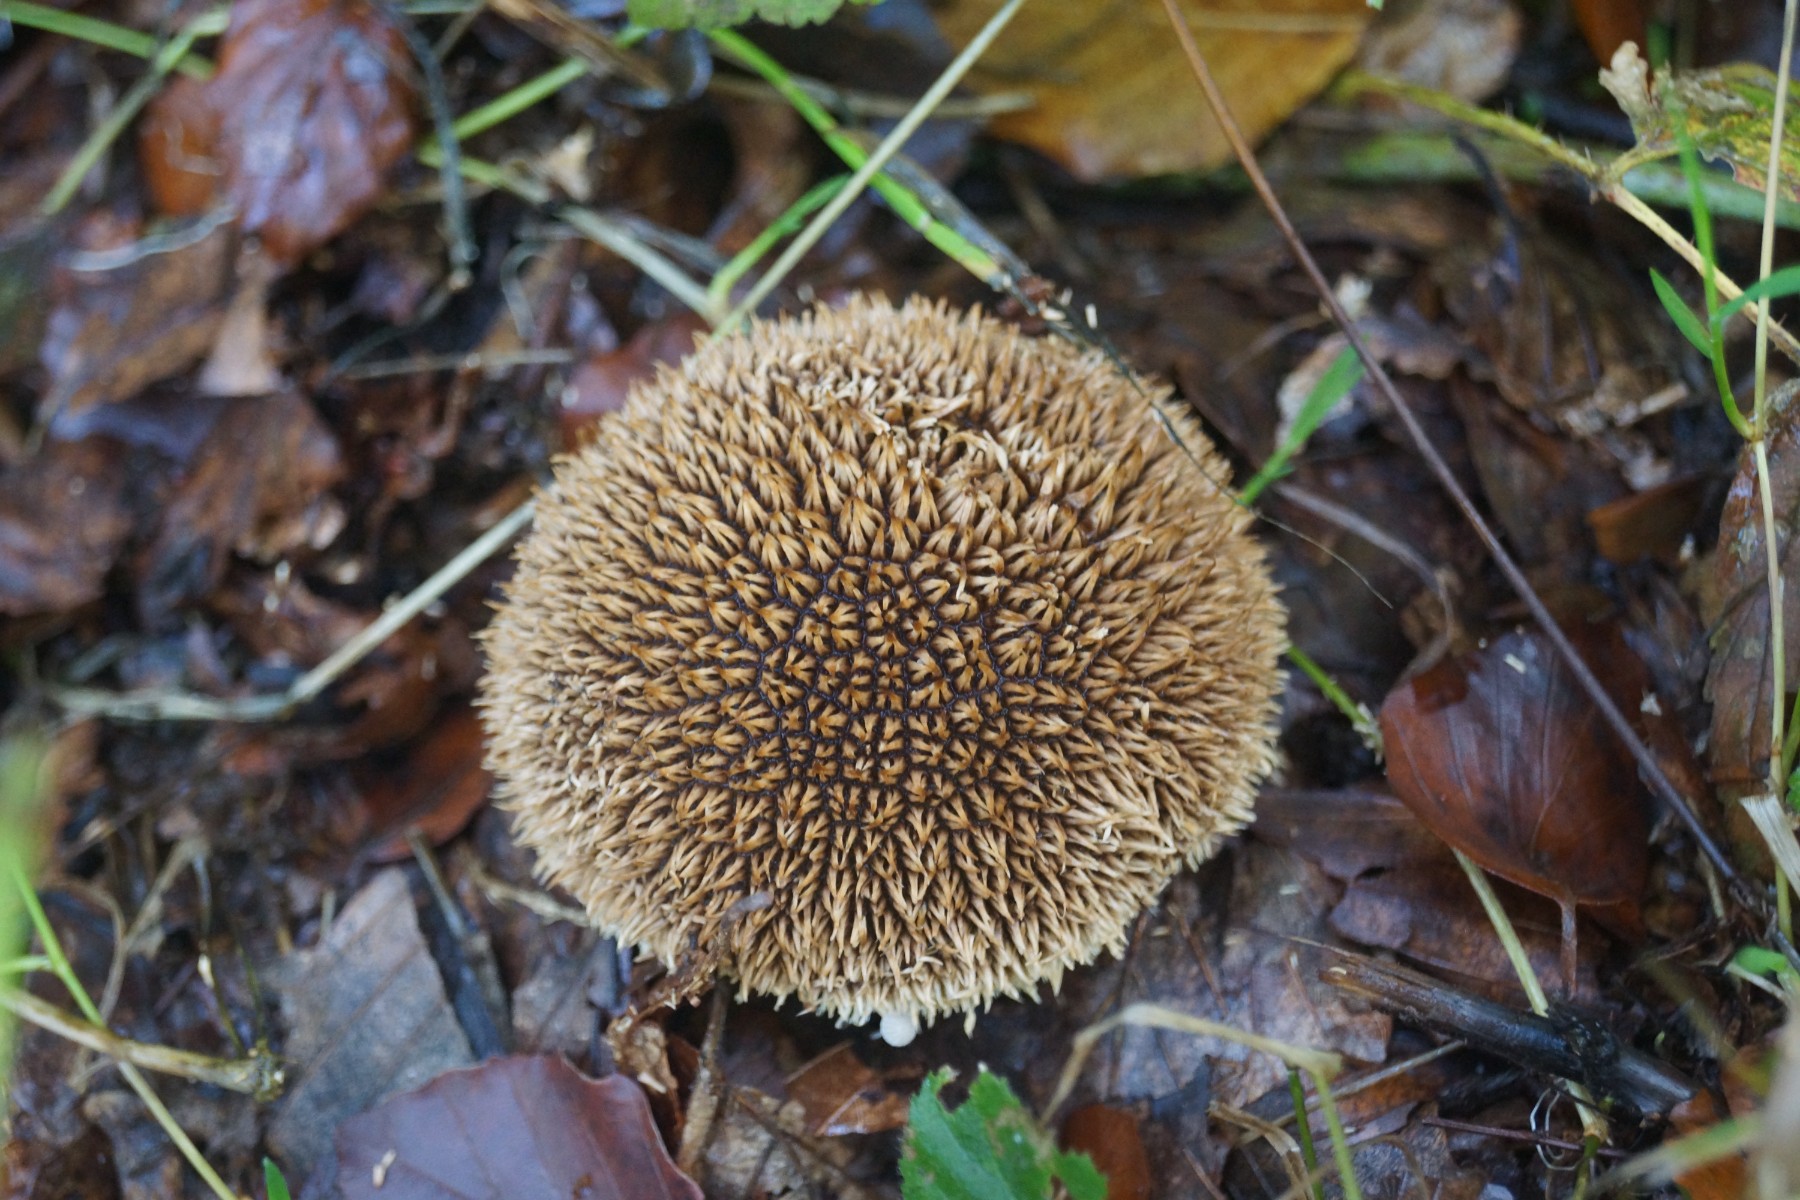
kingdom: Fungi
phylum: Basidiomycota
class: Agaricomycetes
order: Agaricales
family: Lycoperdaceae
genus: Lycoperdon
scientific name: Lycoperdon echinatum
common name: pindsvine-støvbold
